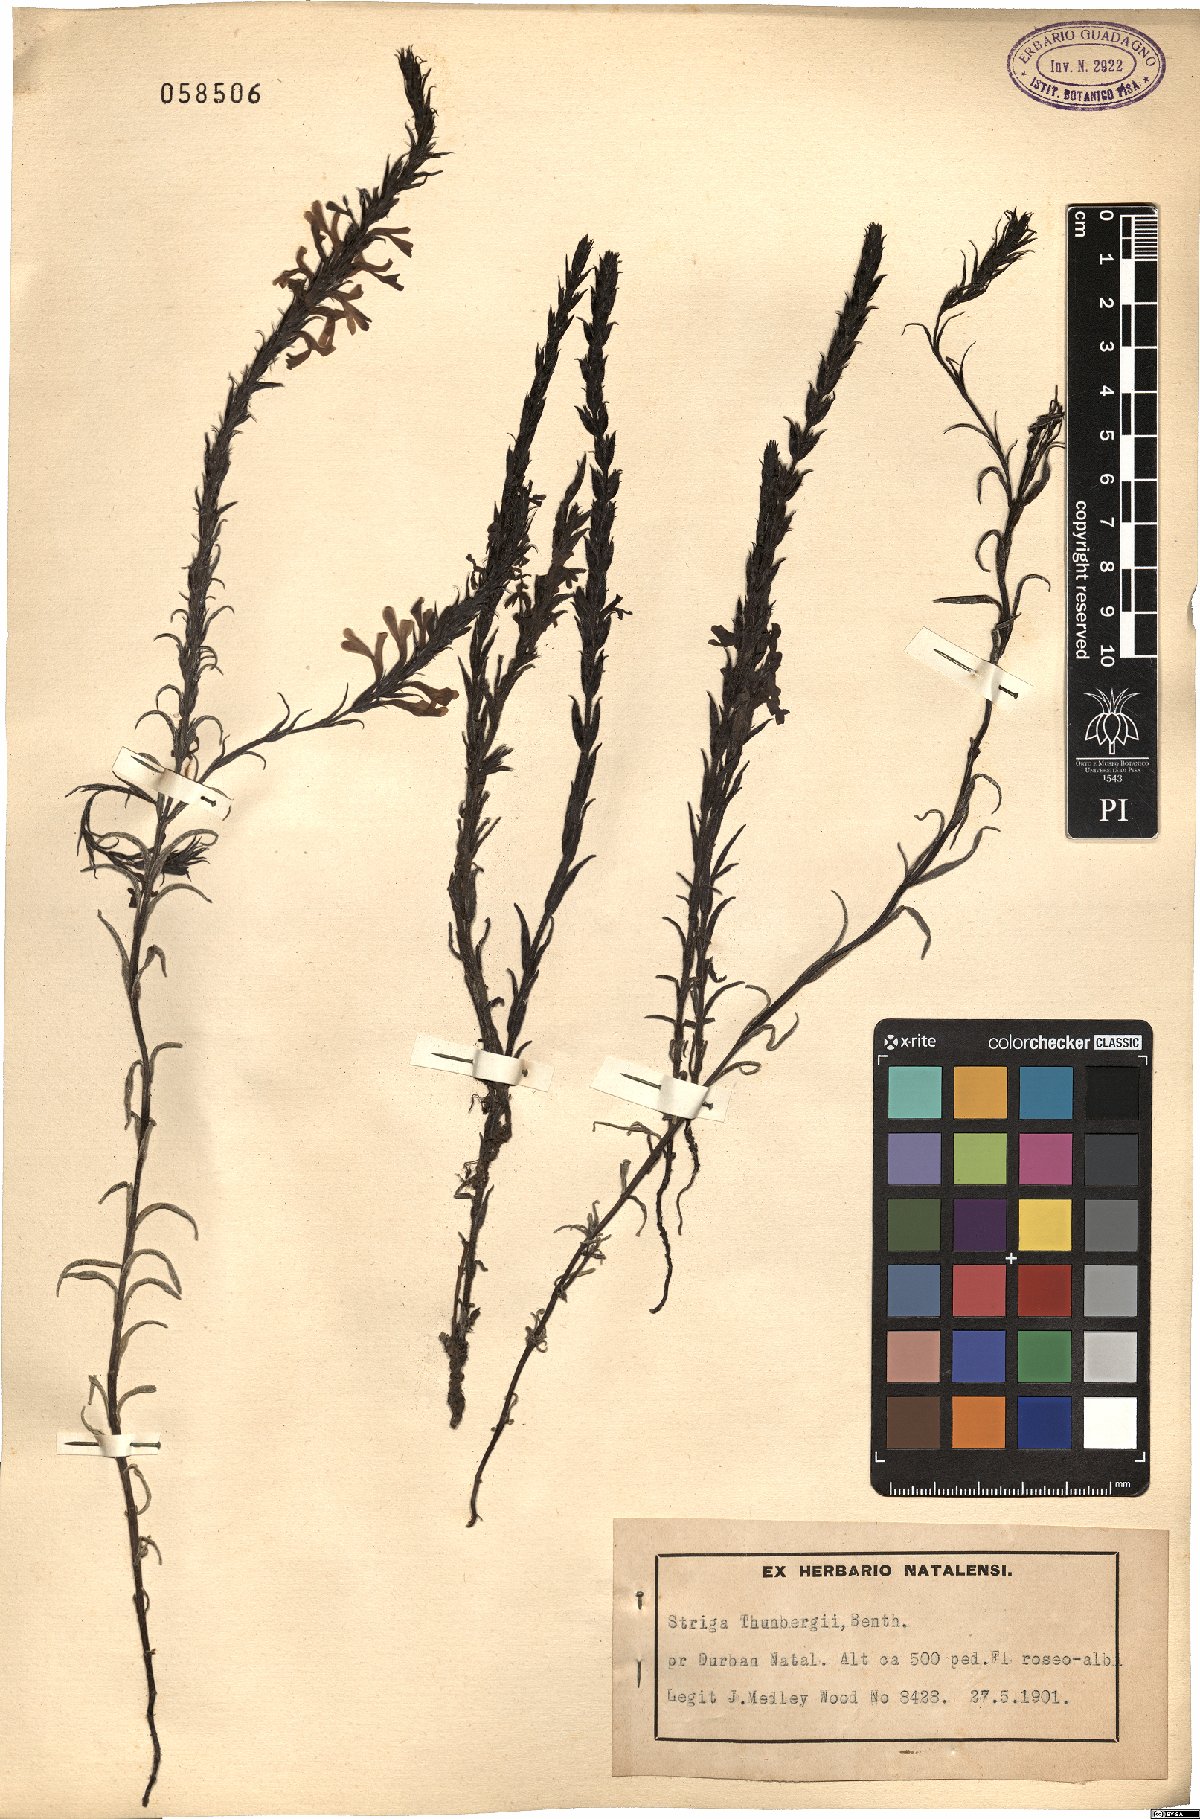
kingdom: Plantae
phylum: Tracheophyta
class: Magnoliopsida
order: Lamiales
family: Orobanchaceae
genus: Striga
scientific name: Striga bilabiata
